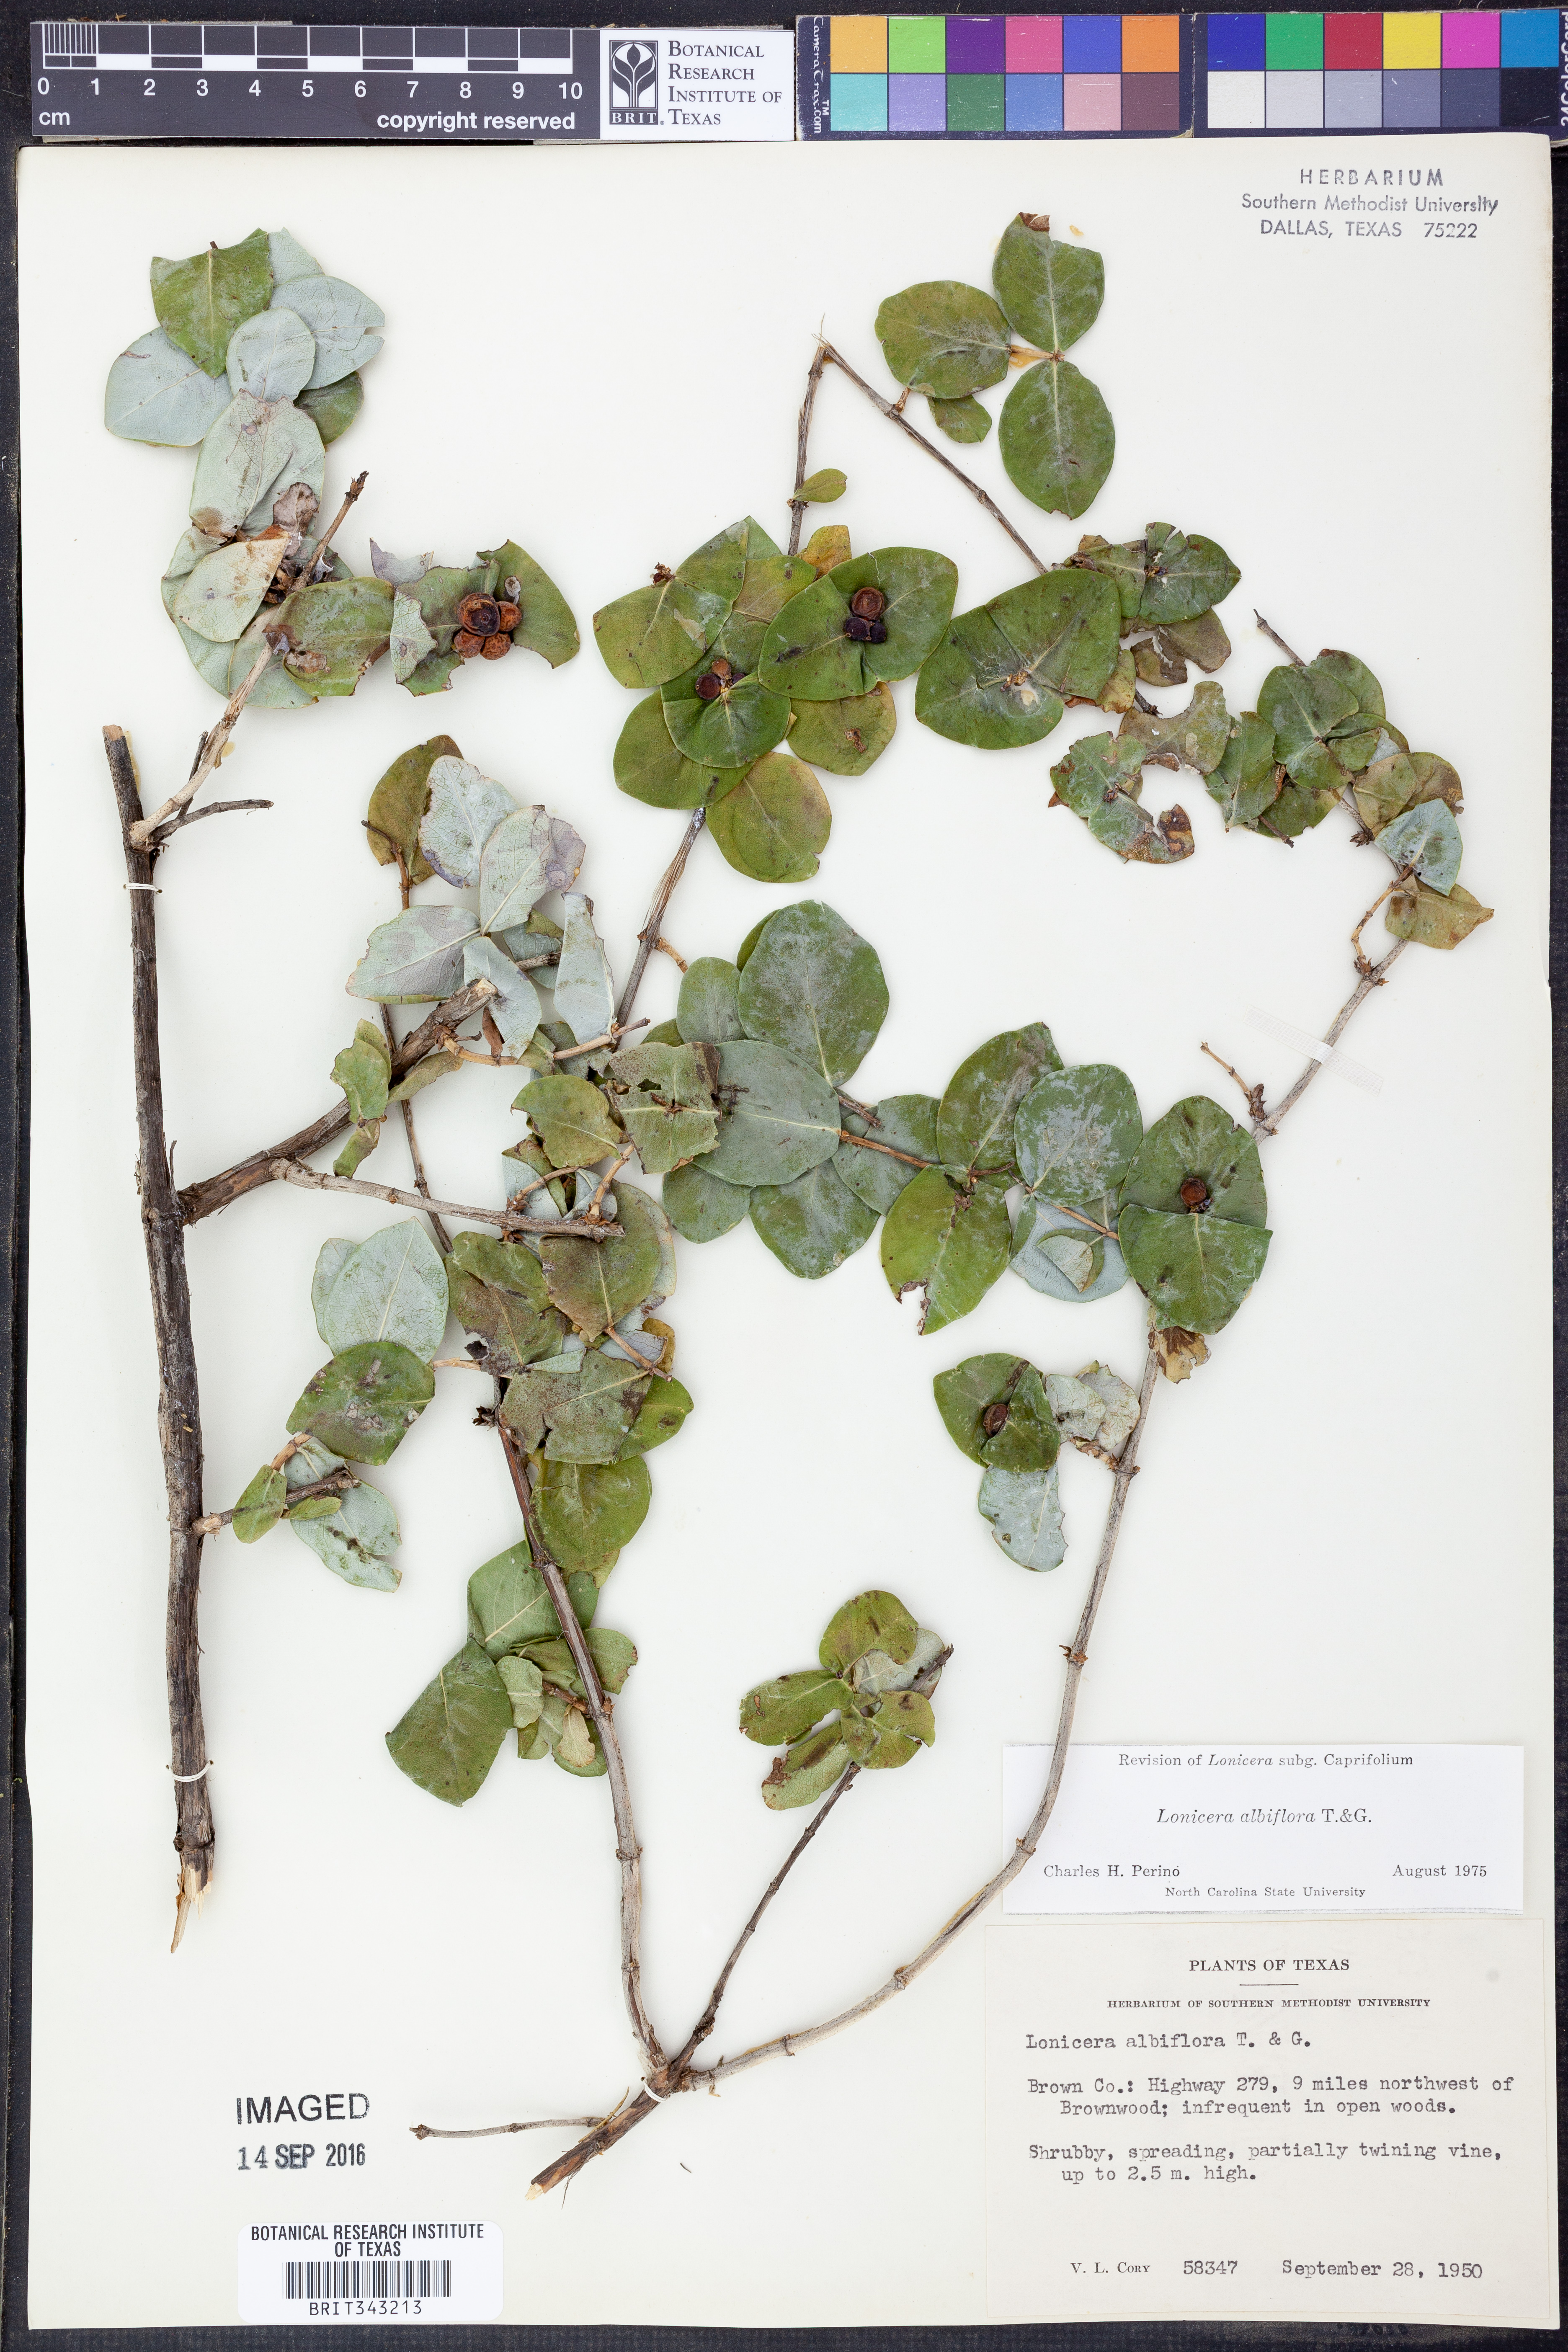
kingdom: Plantae
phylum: Tracheophyta
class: Magnoliopsida
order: Dipsacales
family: Caprifoliaceae
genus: Lonicera
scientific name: Lonicera albiflora
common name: White honeysuckle
